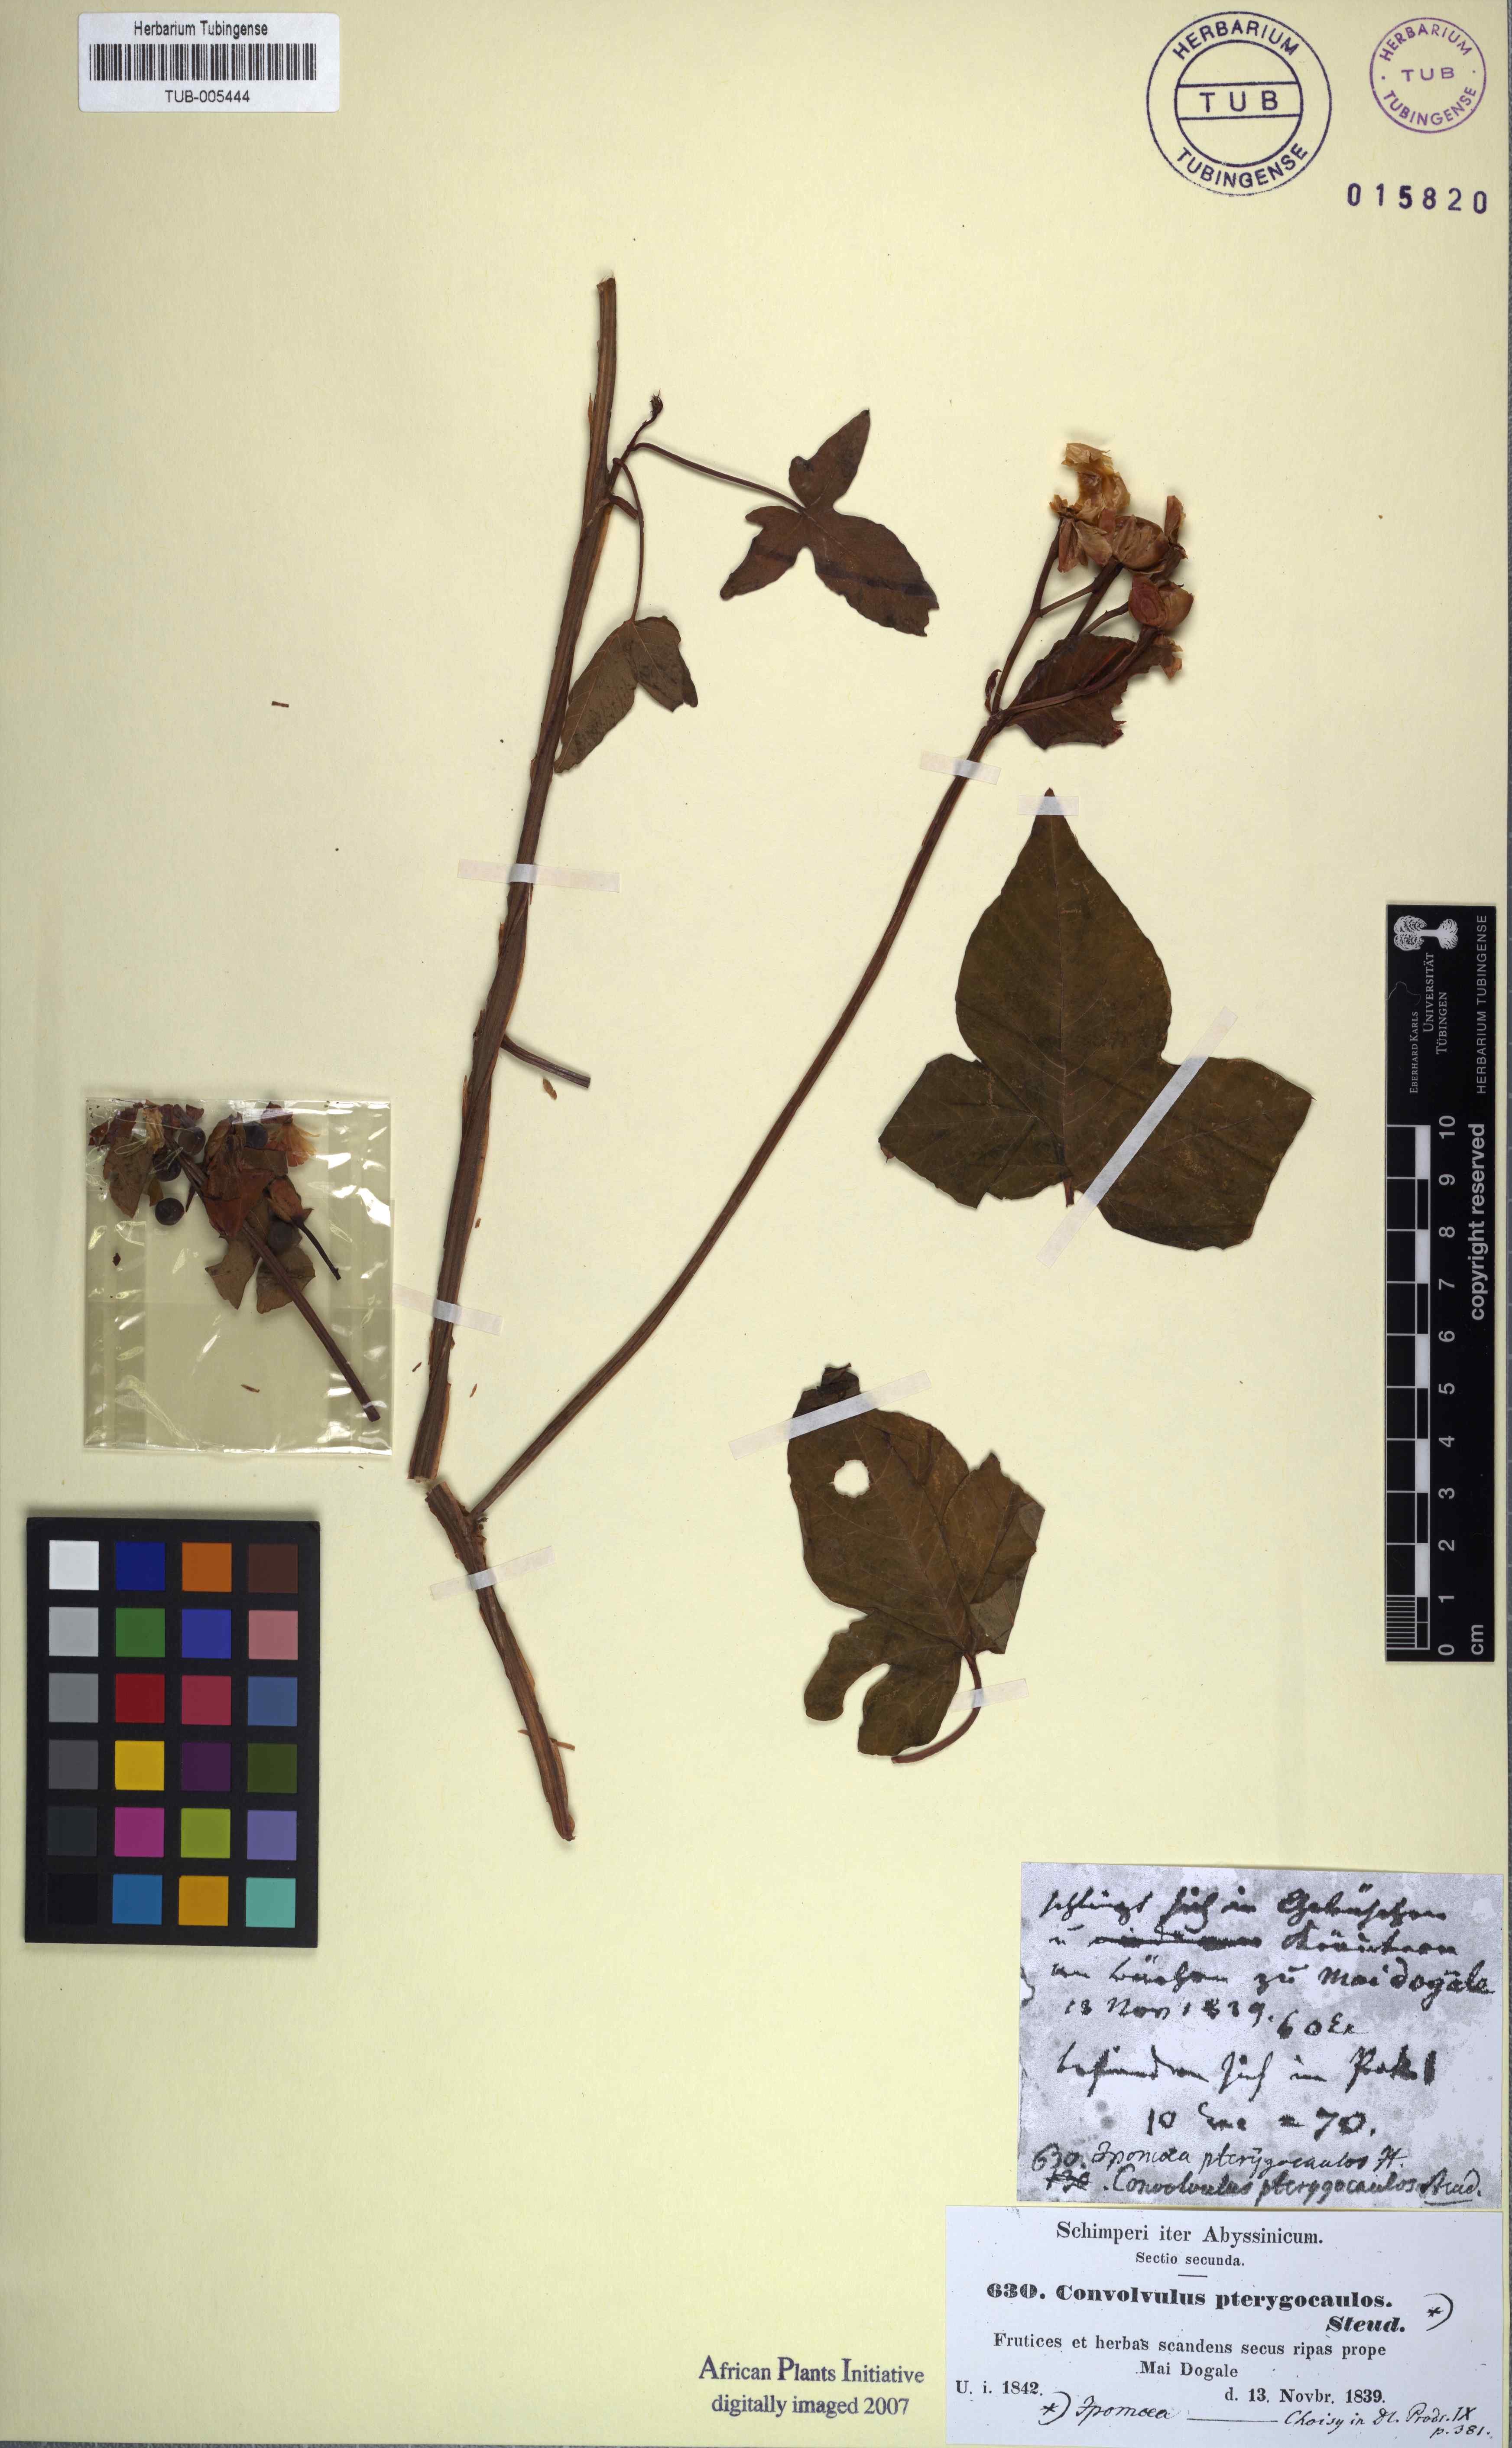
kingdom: Plantae
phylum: Tracheophyta
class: Magnoliopsida
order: Solanales
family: Convolvulaceae
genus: Merremia
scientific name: Merremia pterygocaulos
